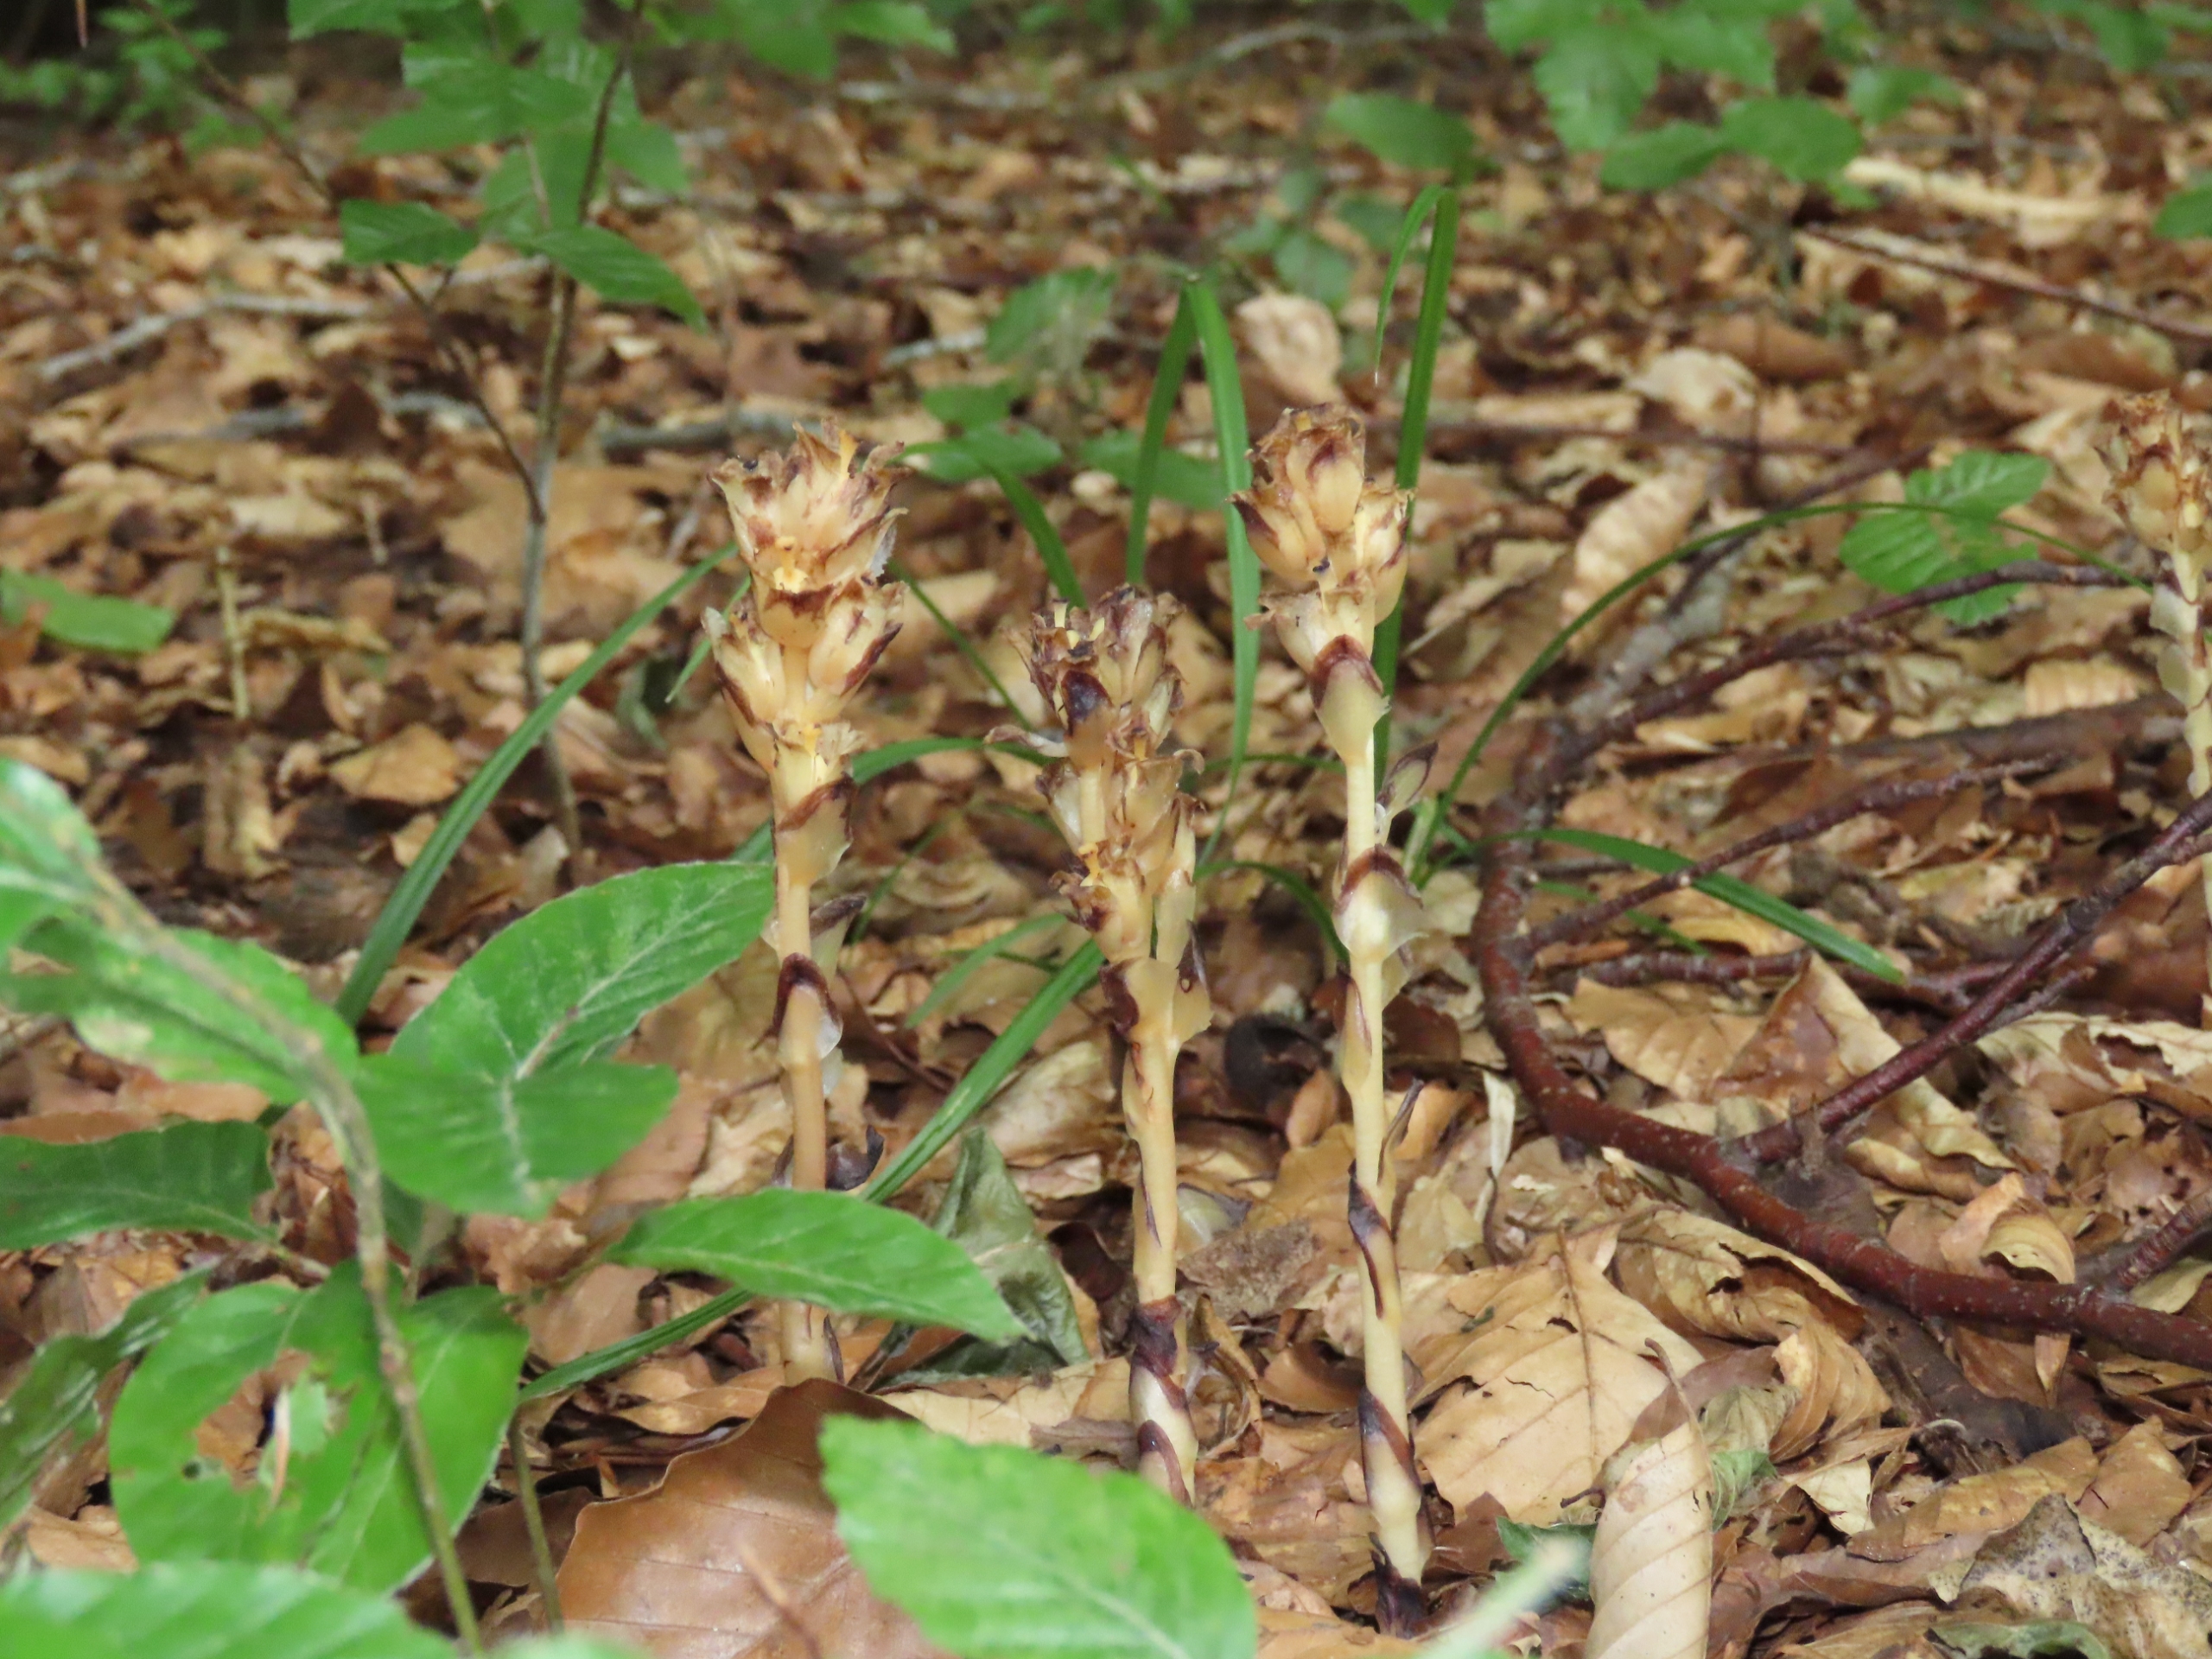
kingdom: Plantae
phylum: Tracheophyta
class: Magnoliopsida
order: Ericales
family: Ericaceae
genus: Hypopitys
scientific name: Hypopitys hypophegea
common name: Glat snylterod
